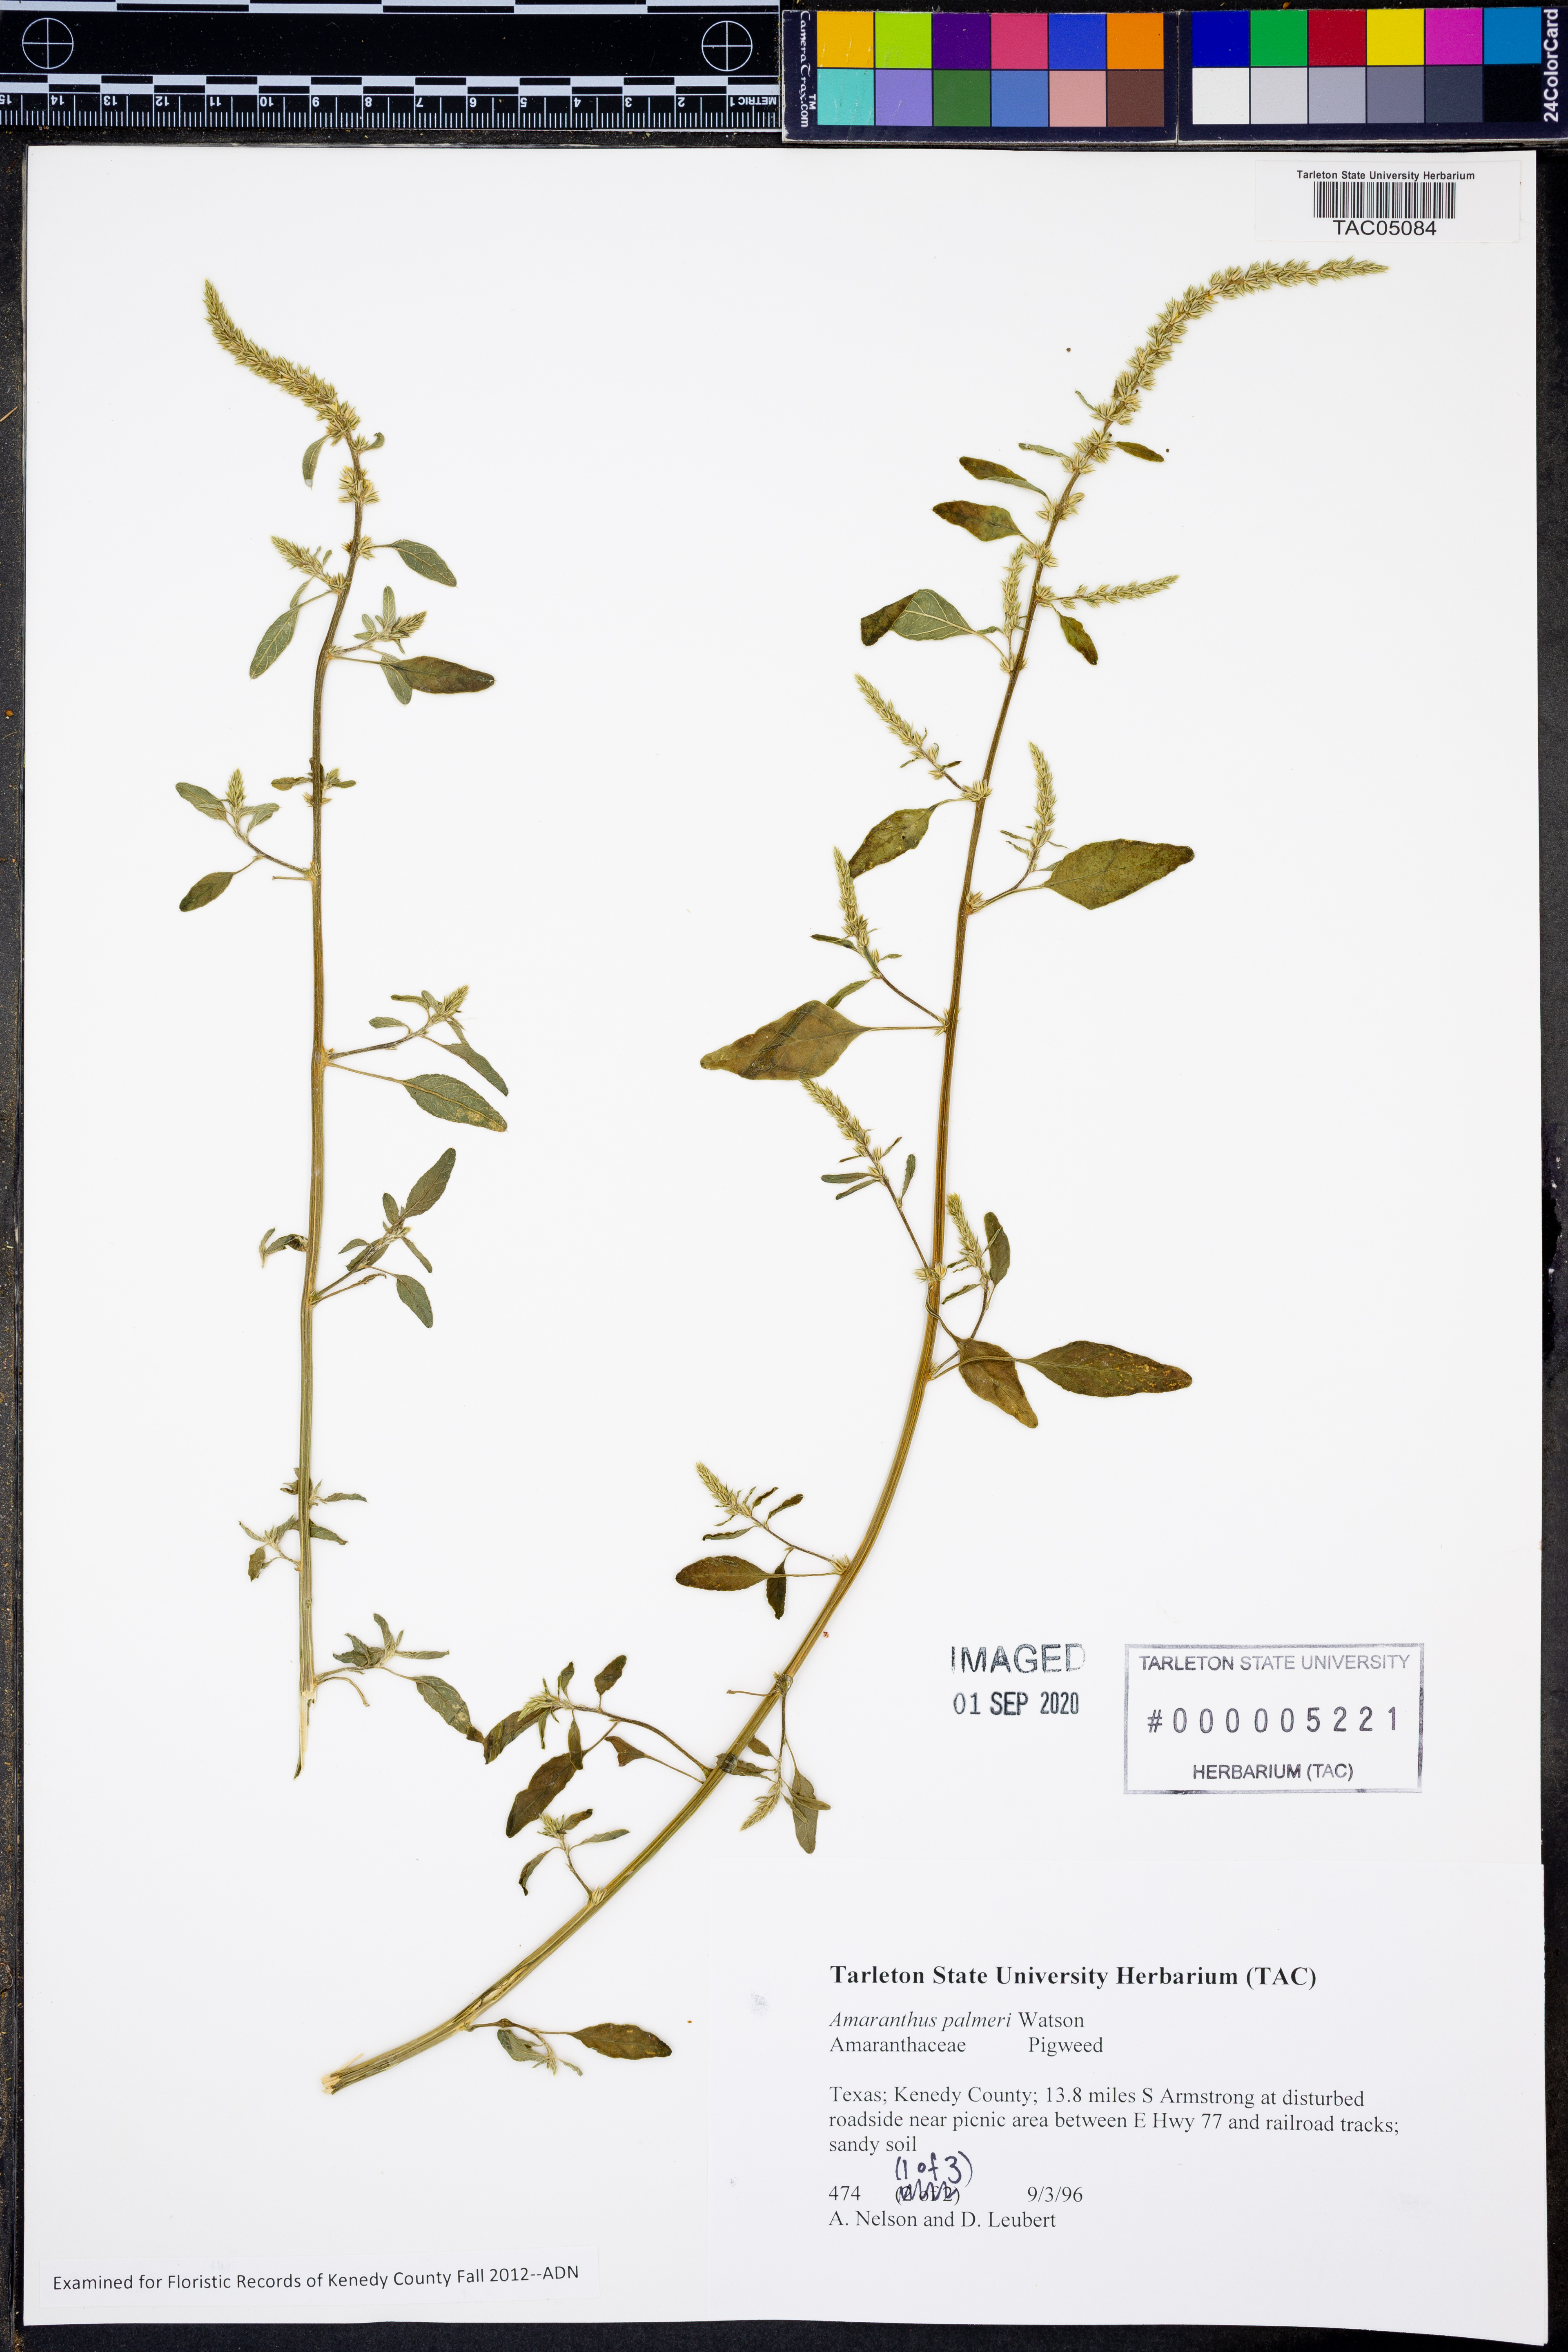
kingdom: Plantae
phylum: Tracheophyta
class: Magnoliopsida
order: Caryophyllales
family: Amaranthaceae
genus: Amaranthus
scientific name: Amaranthus palmeri
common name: Dioecious amaranth
